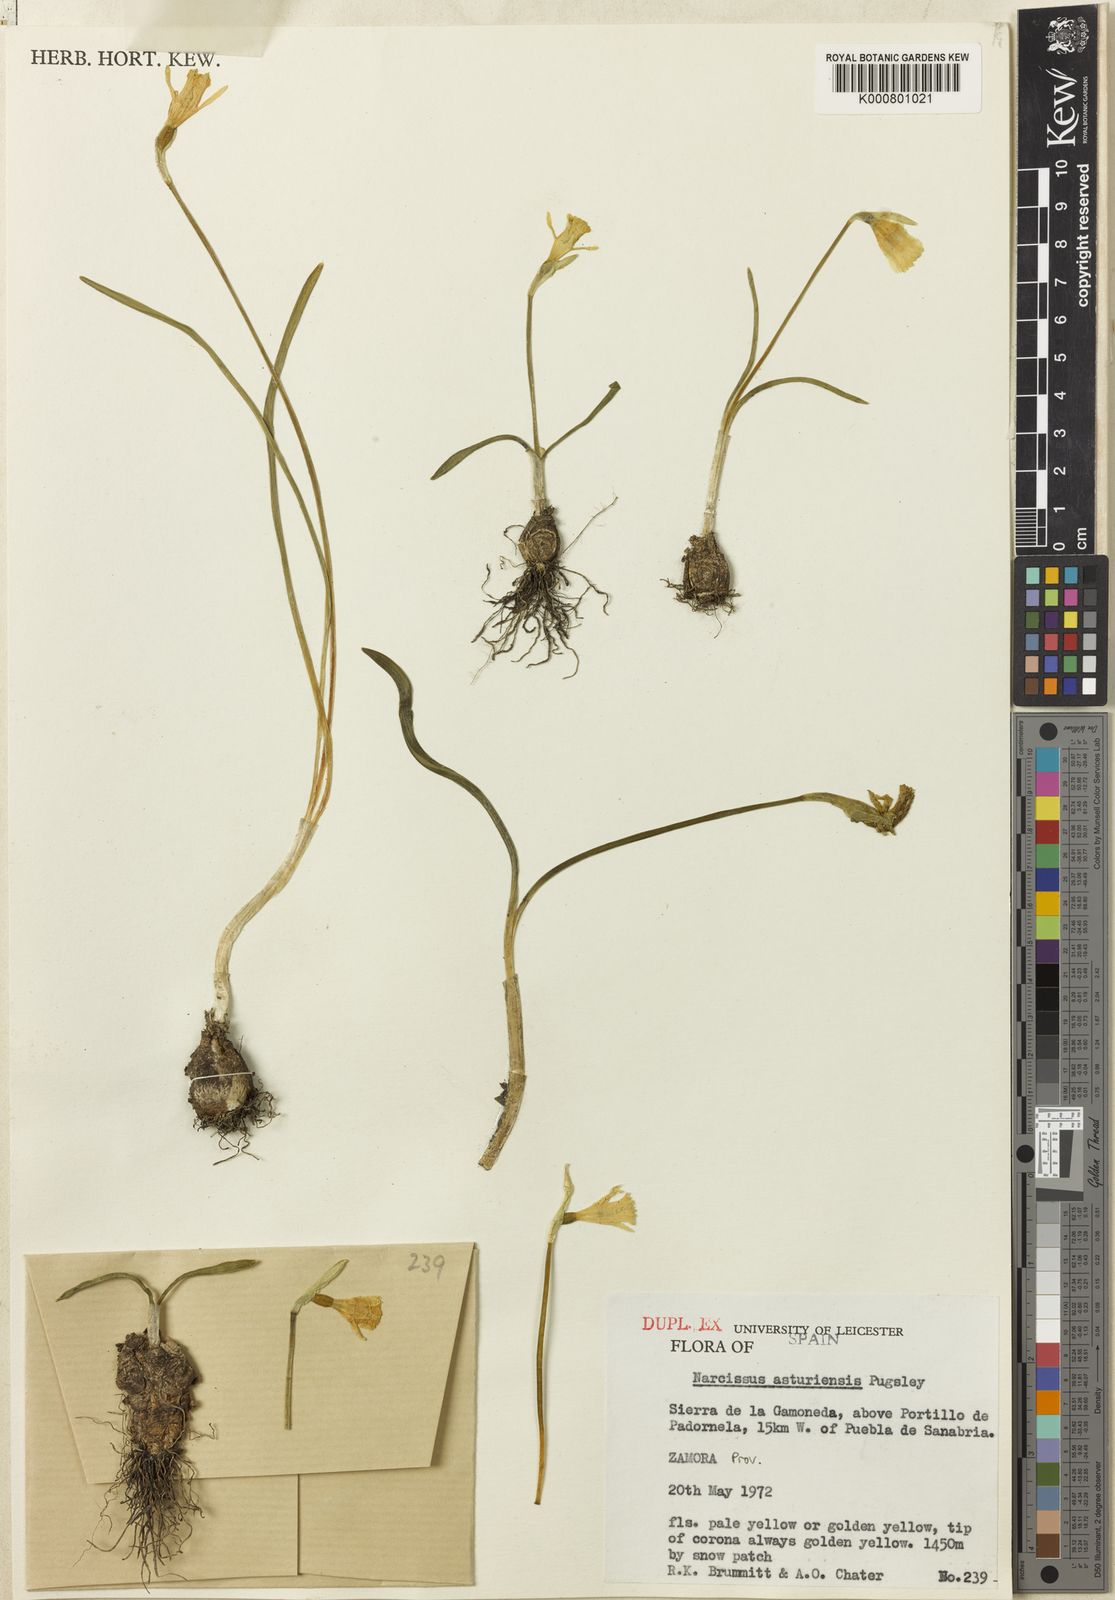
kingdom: Plantae
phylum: Tracheophyta
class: Liliopsida
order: Asparagales
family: Amaryllidaceae
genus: Narcissus
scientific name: Narcissus cuneiflorus
